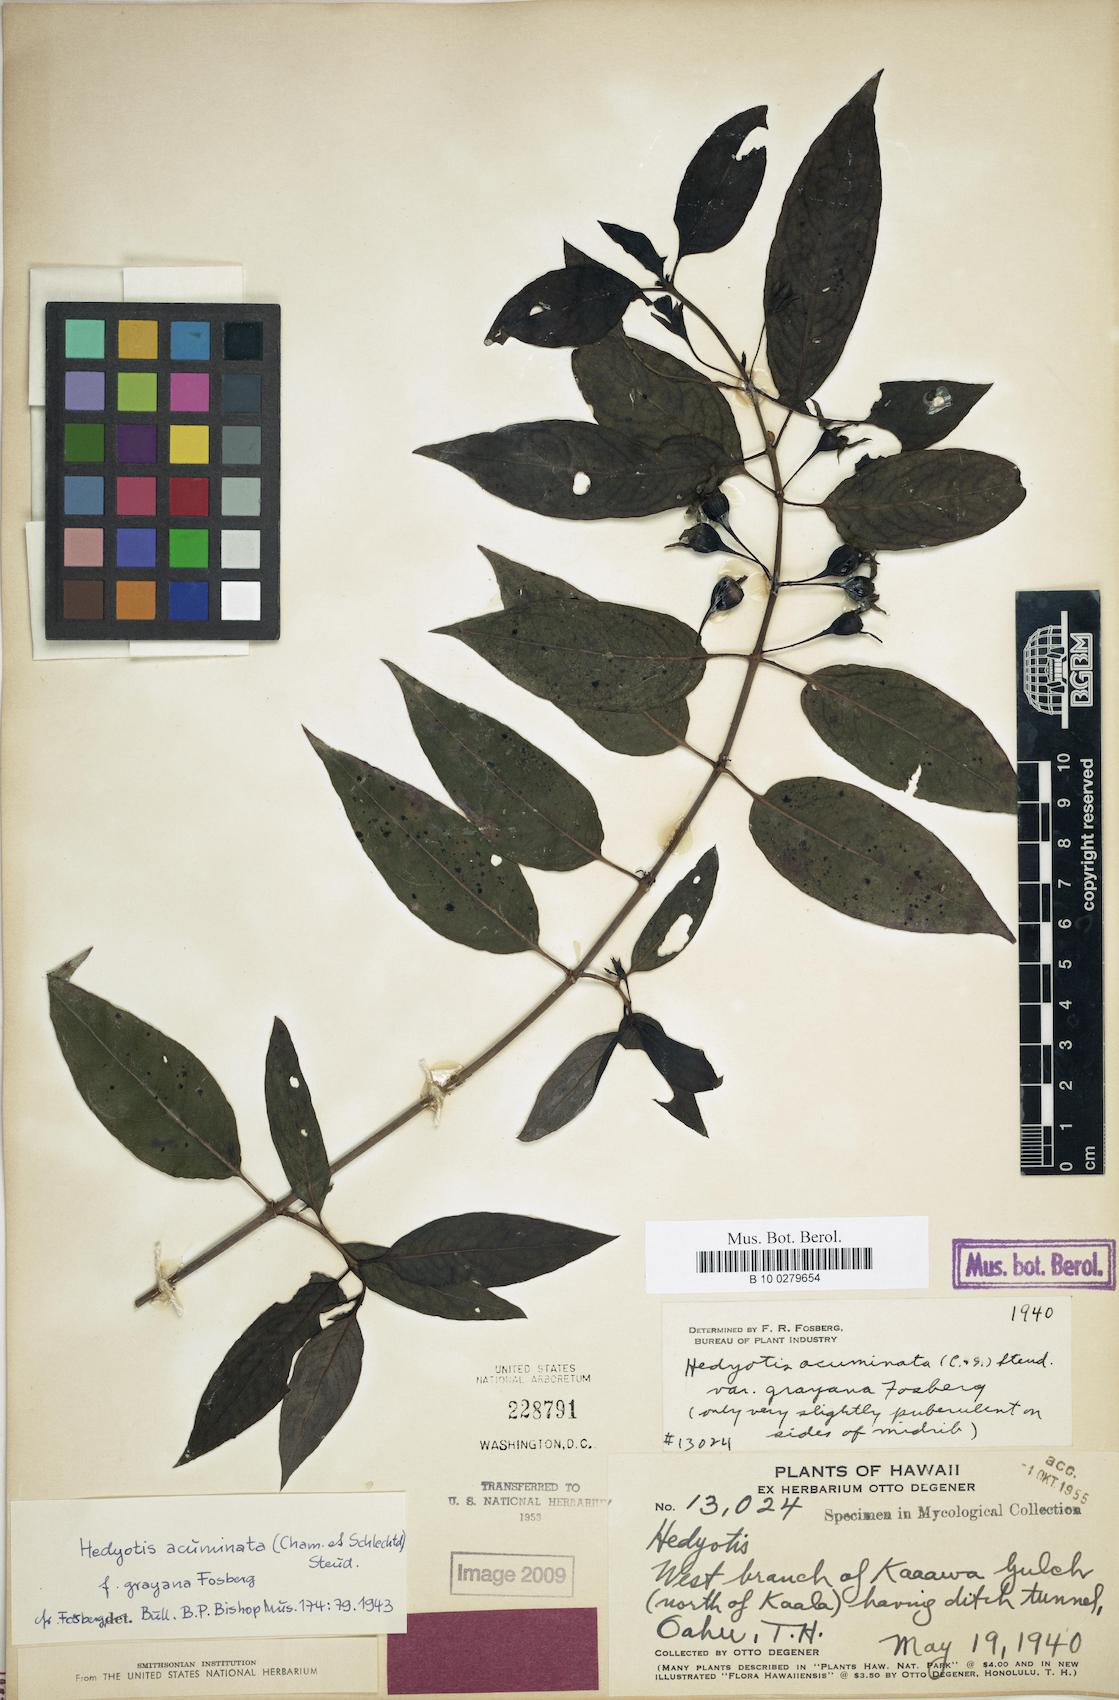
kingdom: Plantae
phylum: Tracheophyta
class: Magnoliopsida
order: Gentianales
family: Rubiaceae
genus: Kadua
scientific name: Kadua acuminata
